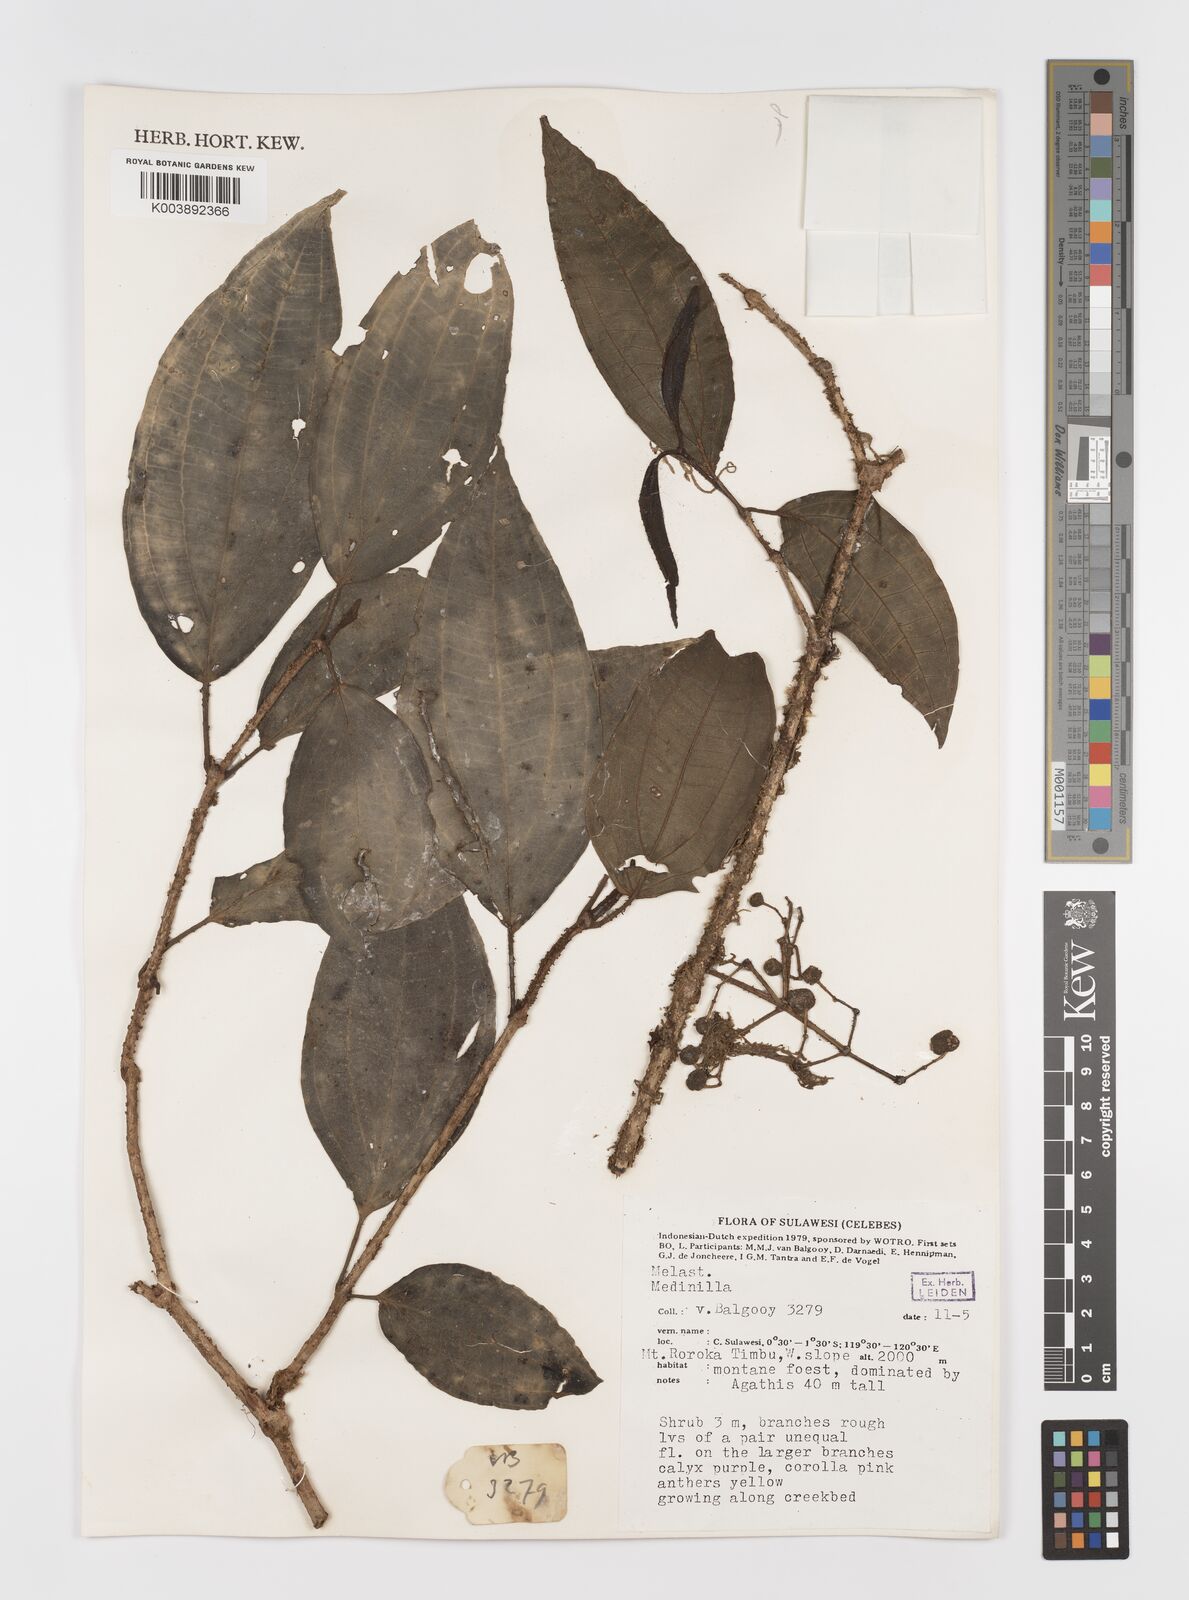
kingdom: Plantae
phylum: Tracheophyta
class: Magnoliopsida
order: Myrtales
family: Melastomataceae
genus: Medinilla
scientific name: Medinilla
